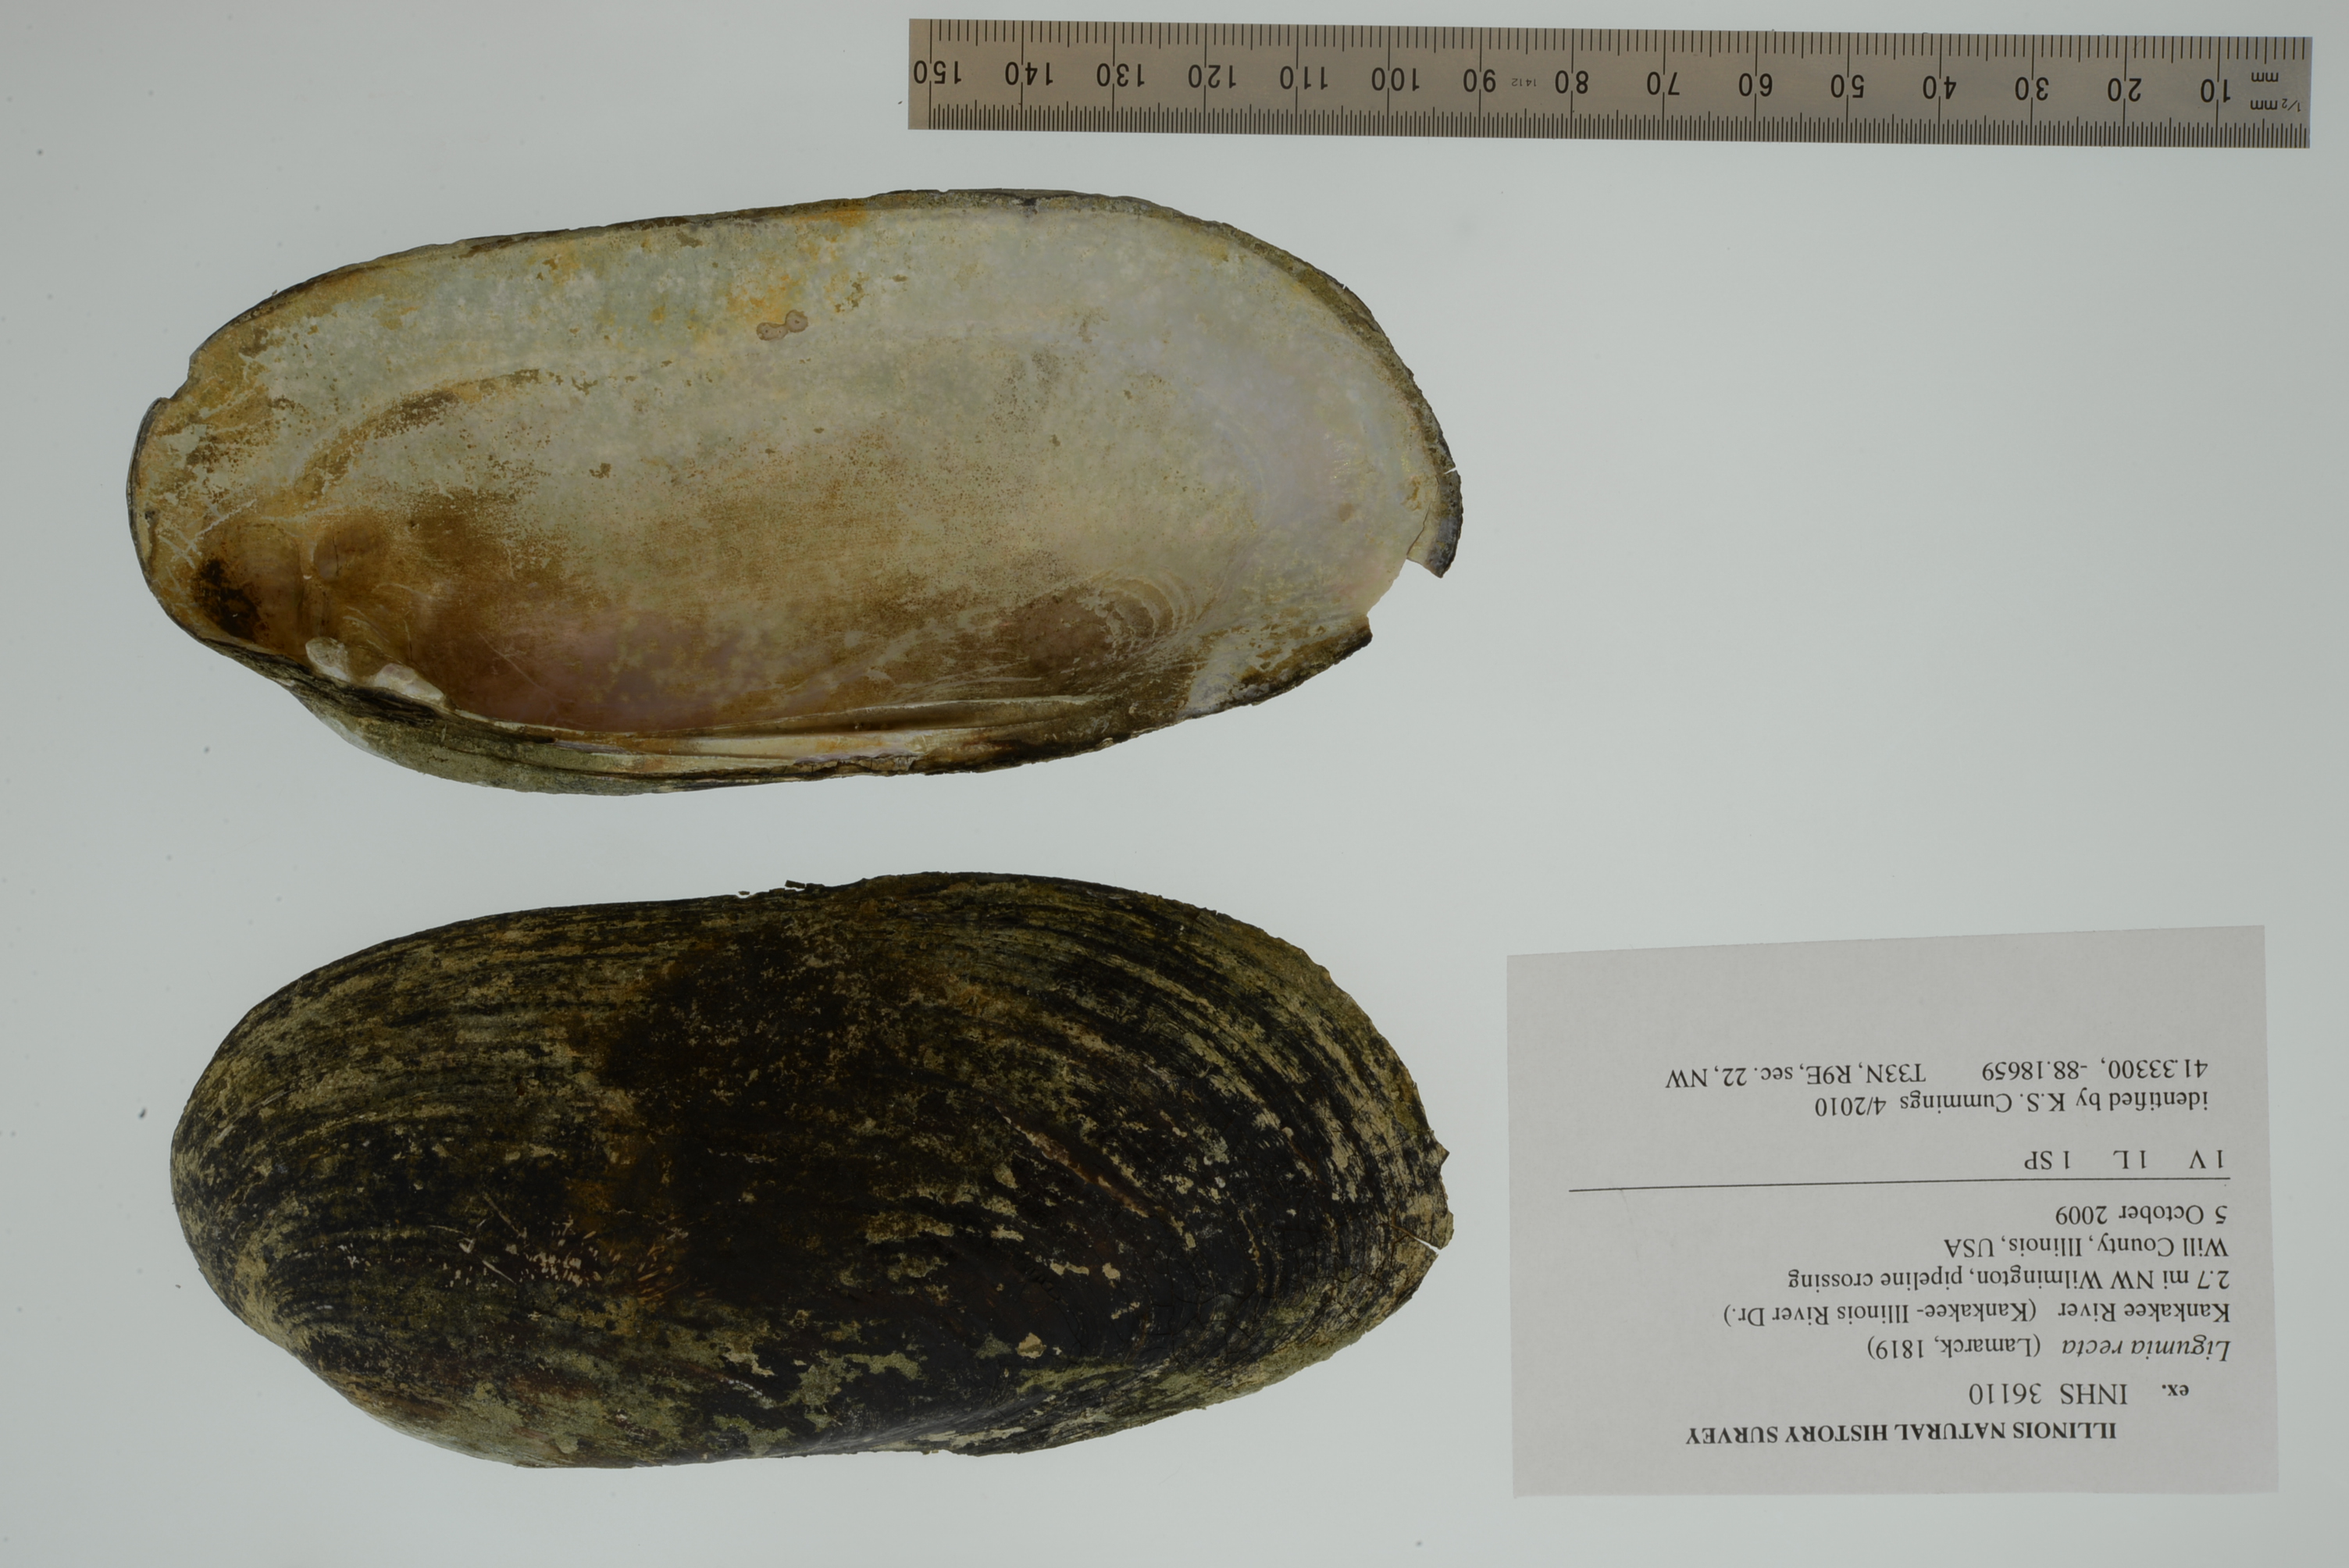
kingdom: Animalia
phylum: Mollusca
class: Bivalvia
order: Unionida
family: Unionidae
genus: Ligumia
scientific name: Ligumia recta
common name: Black sandshell
